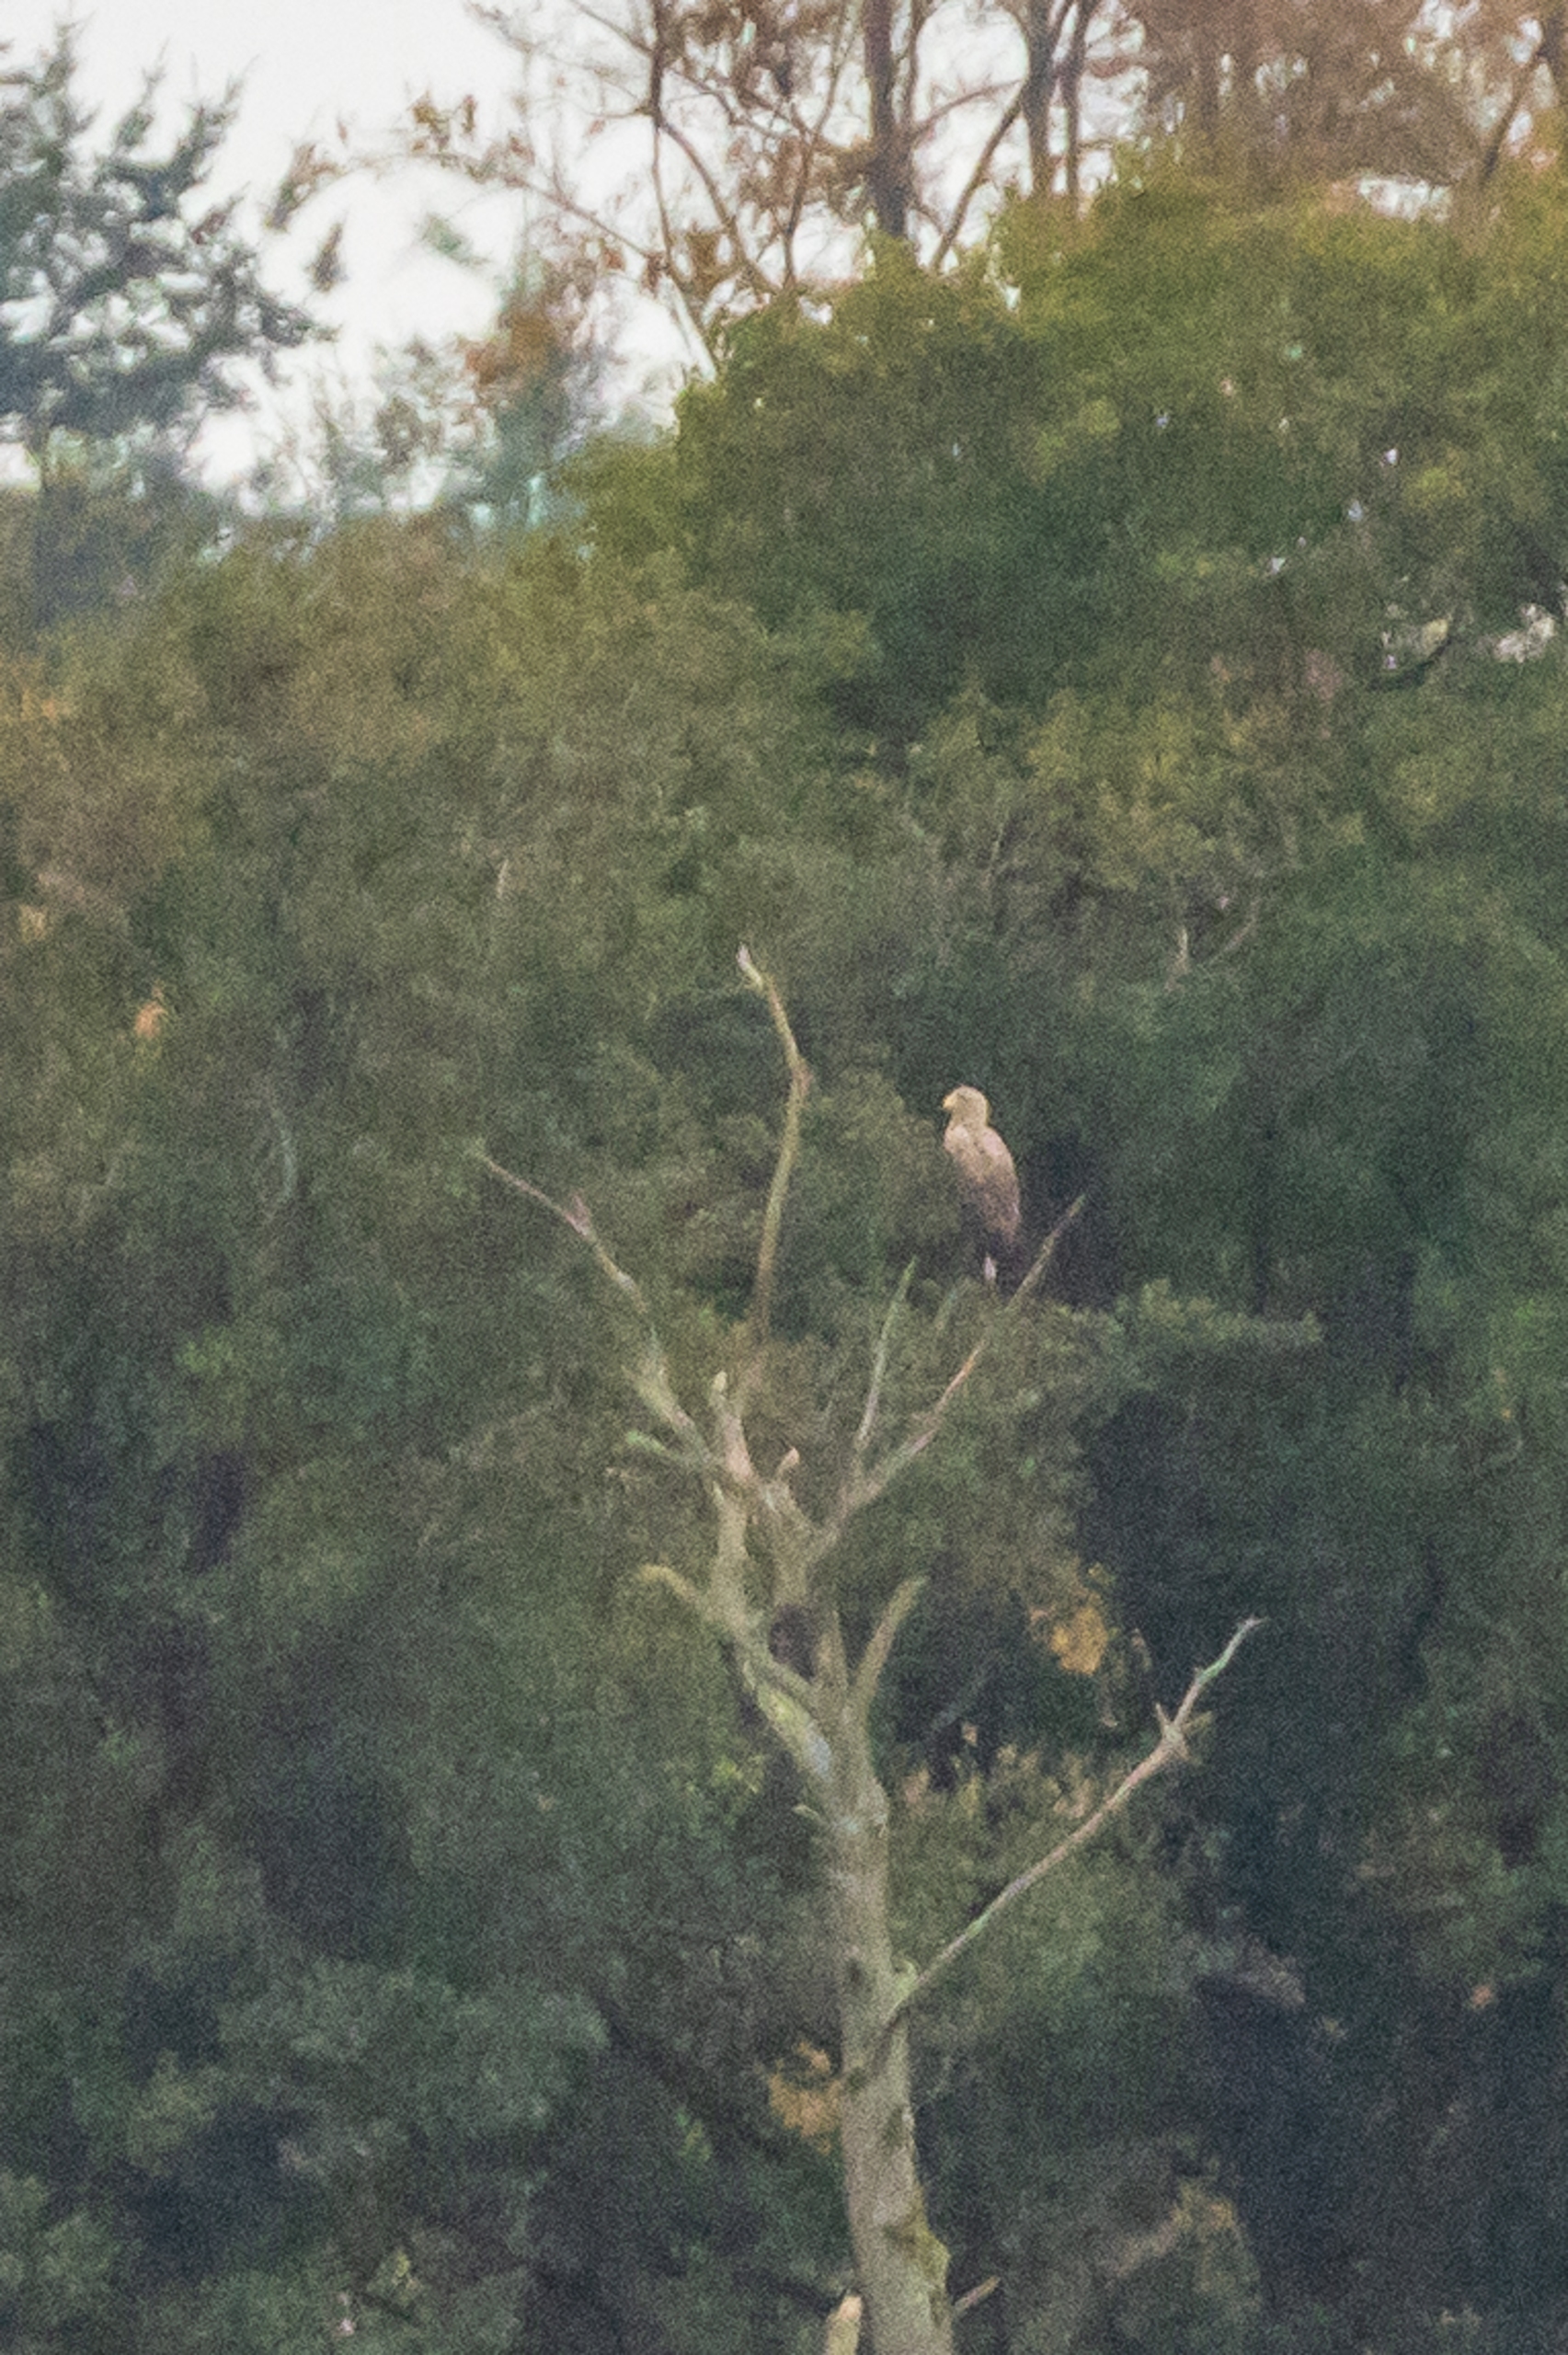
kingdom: Animalia
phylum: Chordata
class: Aves
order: Accipitriformes
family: Accipitridae
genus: Haliaeetus
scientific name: Haliaeetus albicilla
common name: Havørn
